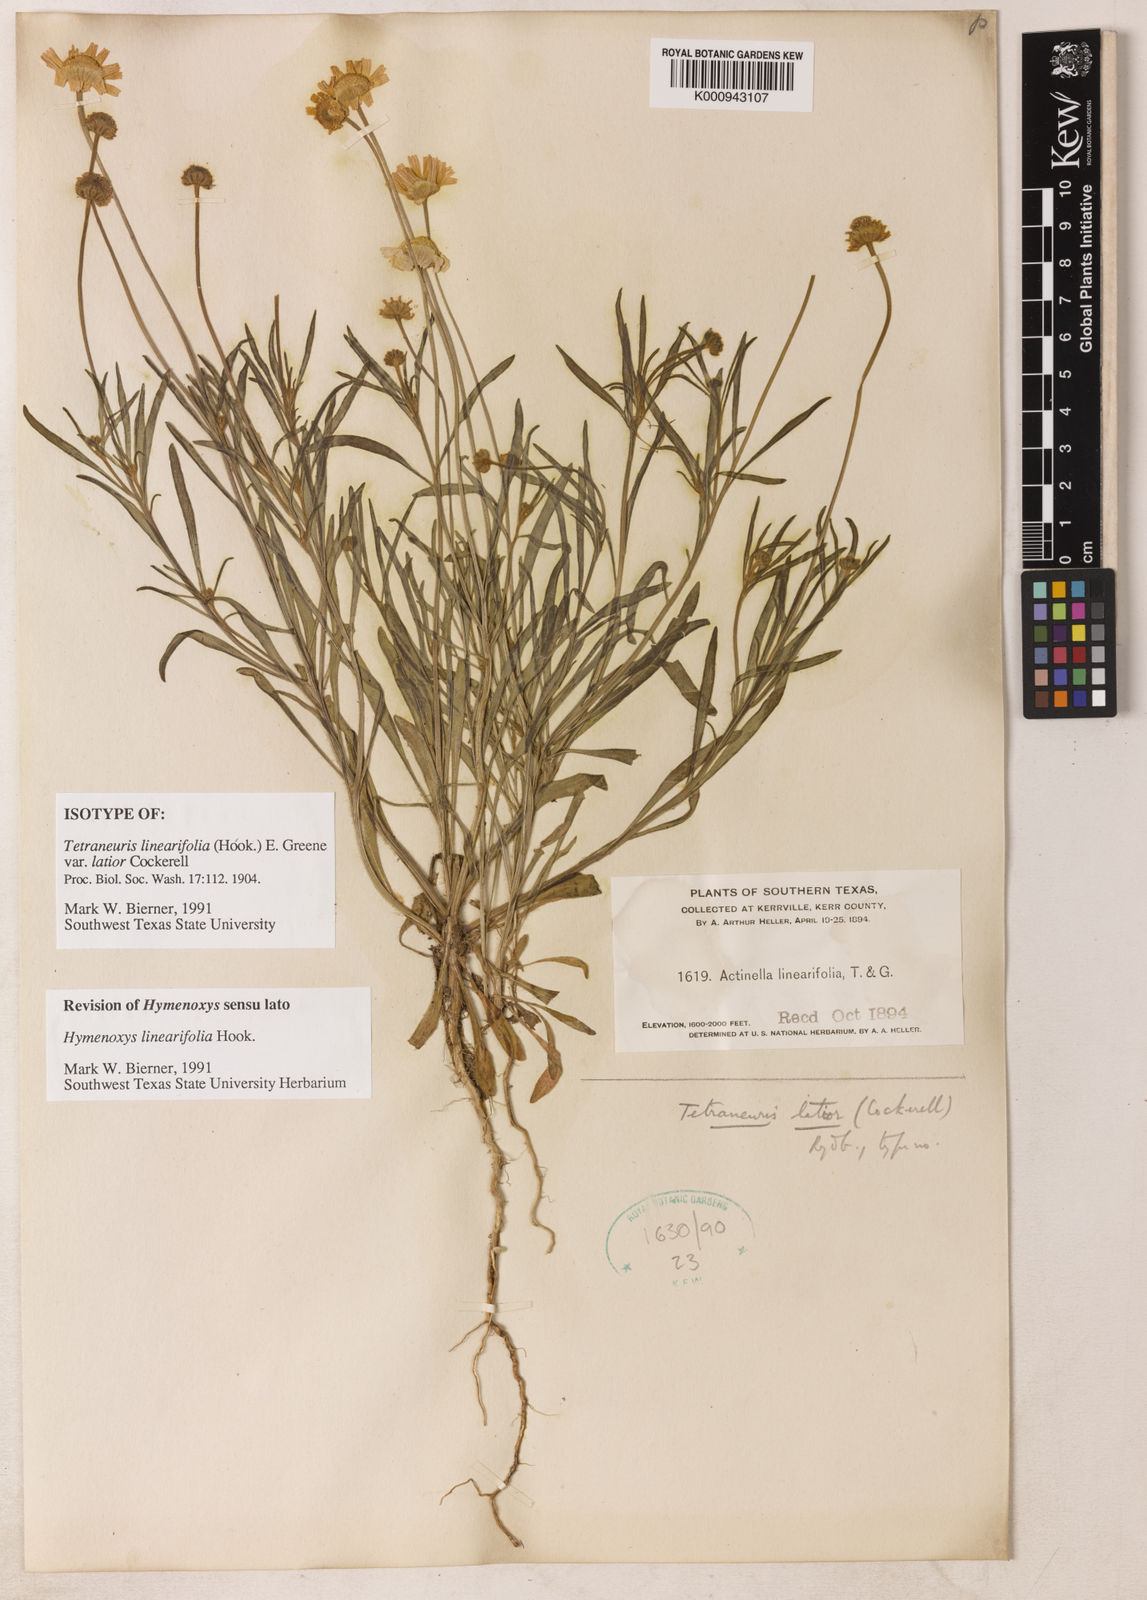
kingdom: Plantae
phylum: Tracheophyta
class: Magnoliopsida
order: Asterales
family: Asteraceae
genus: Tetraneuris
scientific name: Tetraneuris linearifolia
